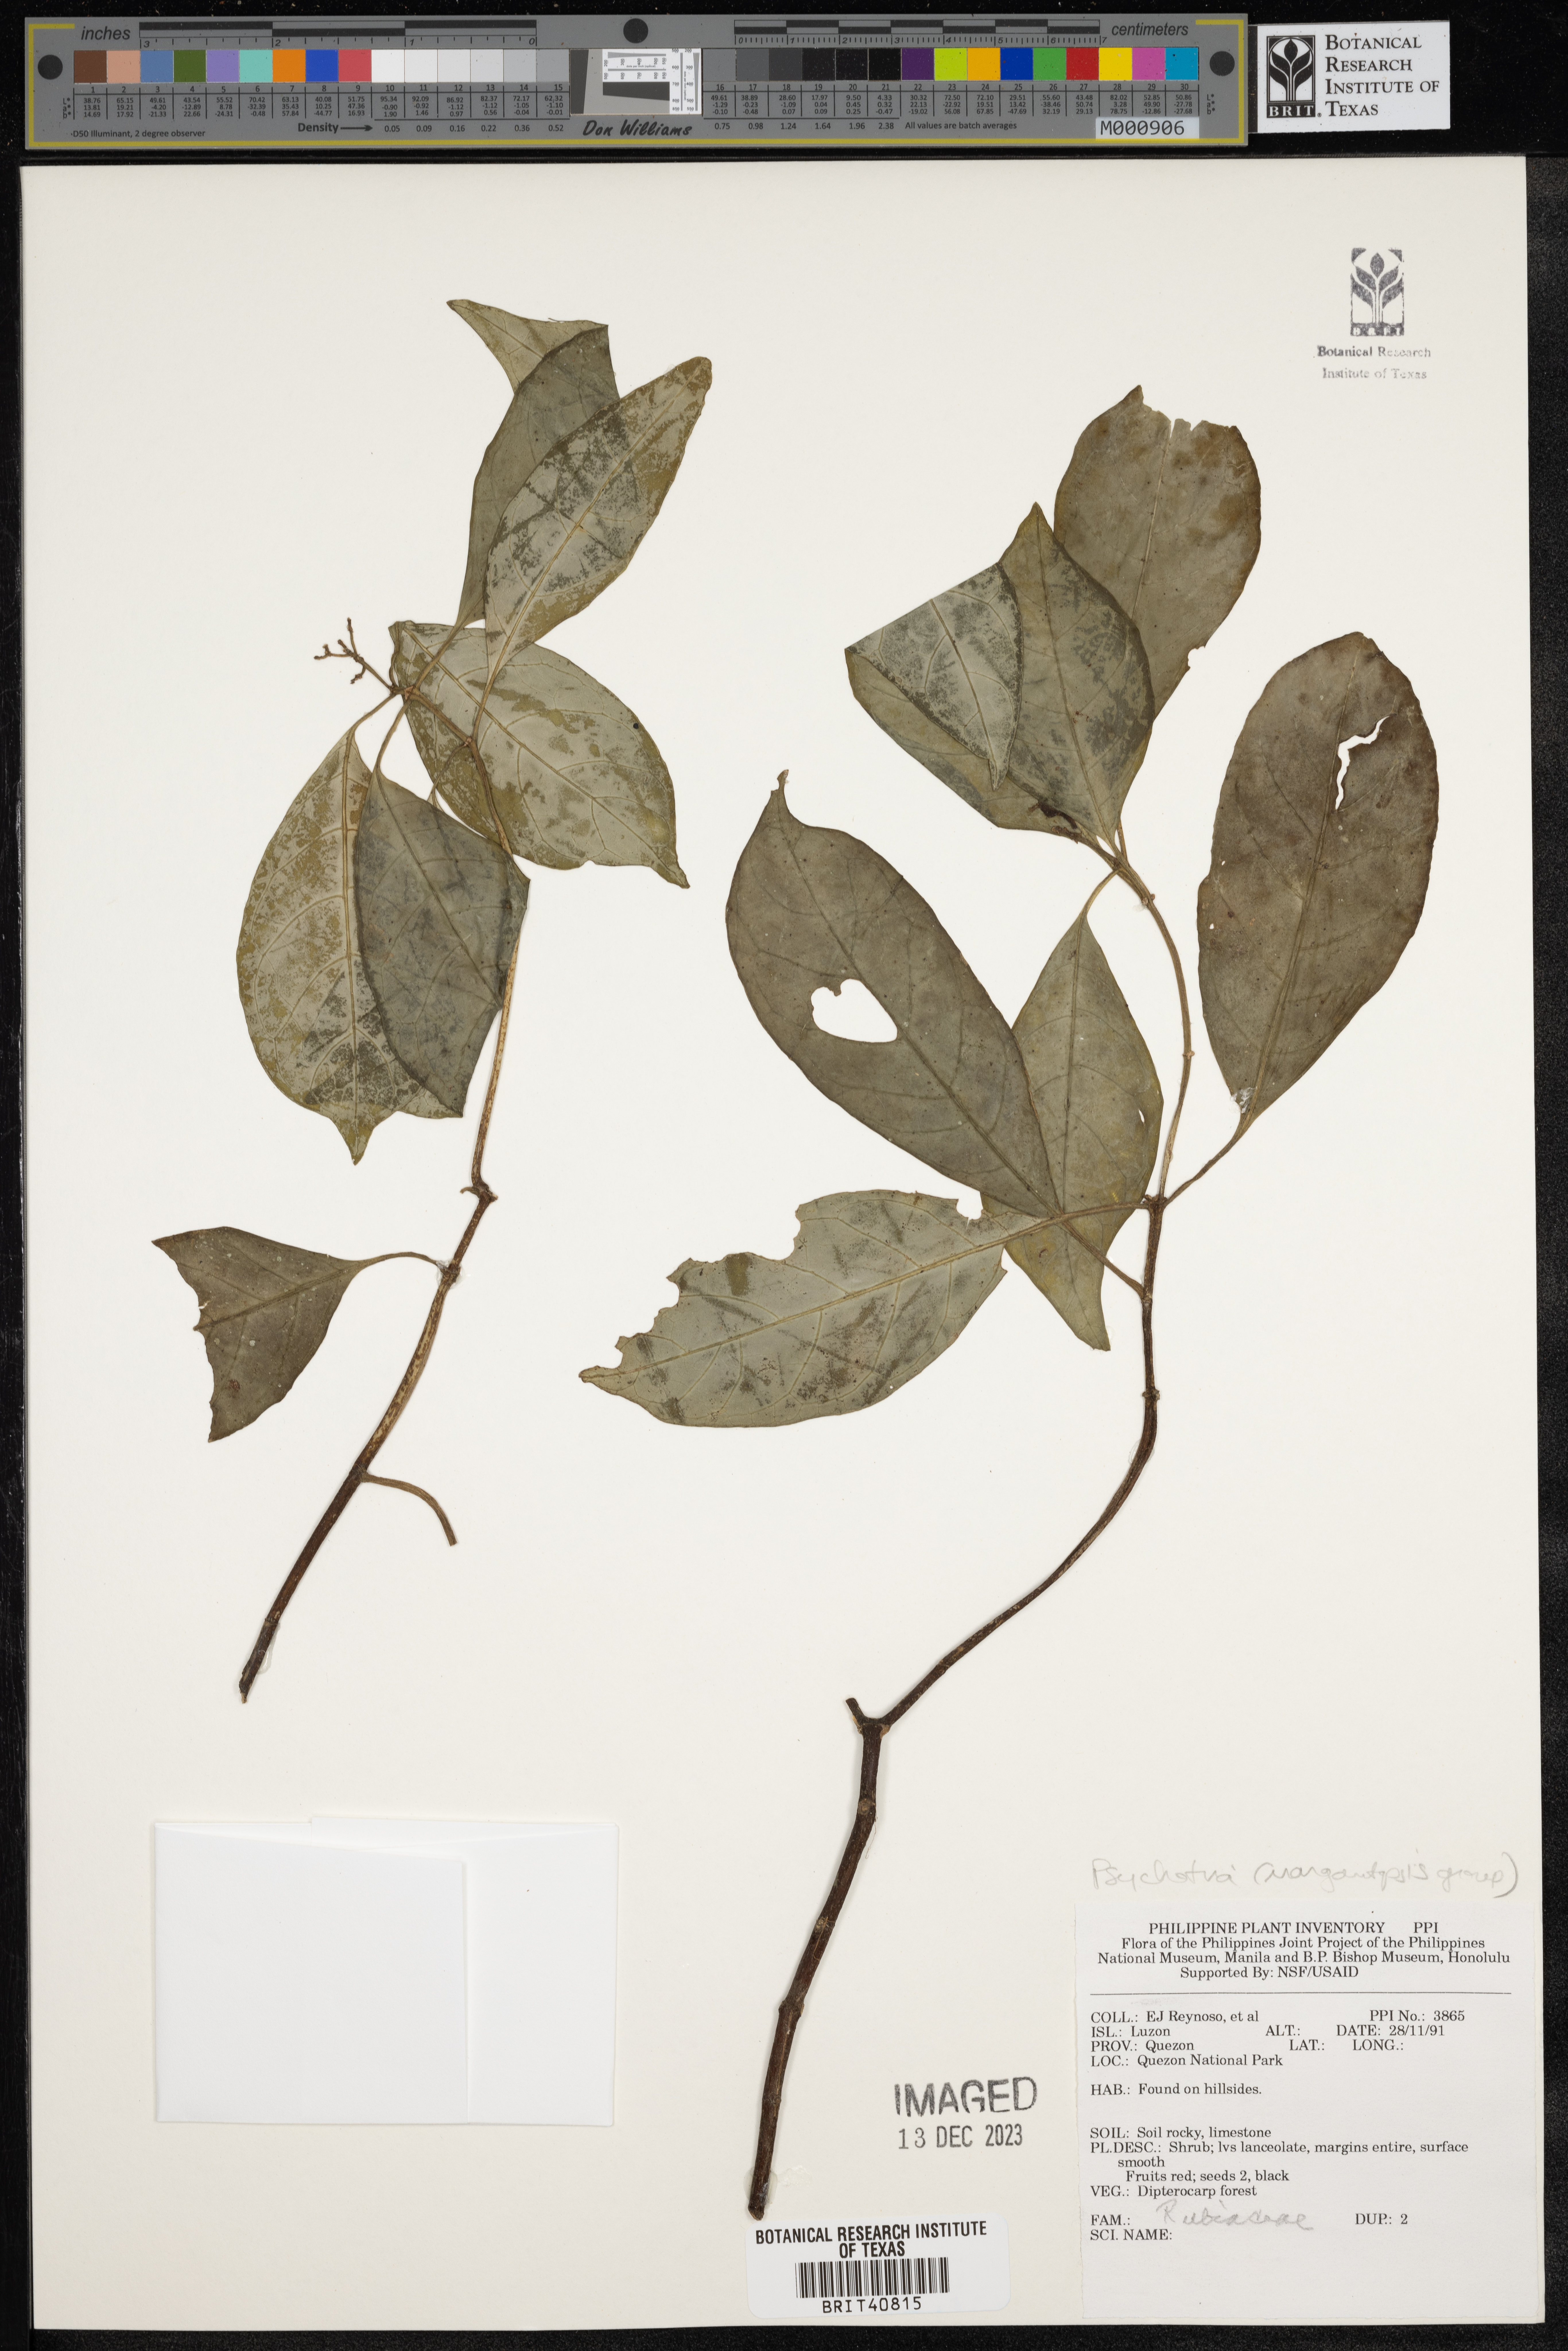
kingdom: Plantae
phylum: Tracheophyta
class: Magnoliopsida
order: Gentianales
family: Rubiaceae
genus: Psychotria
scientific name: Psychotria
